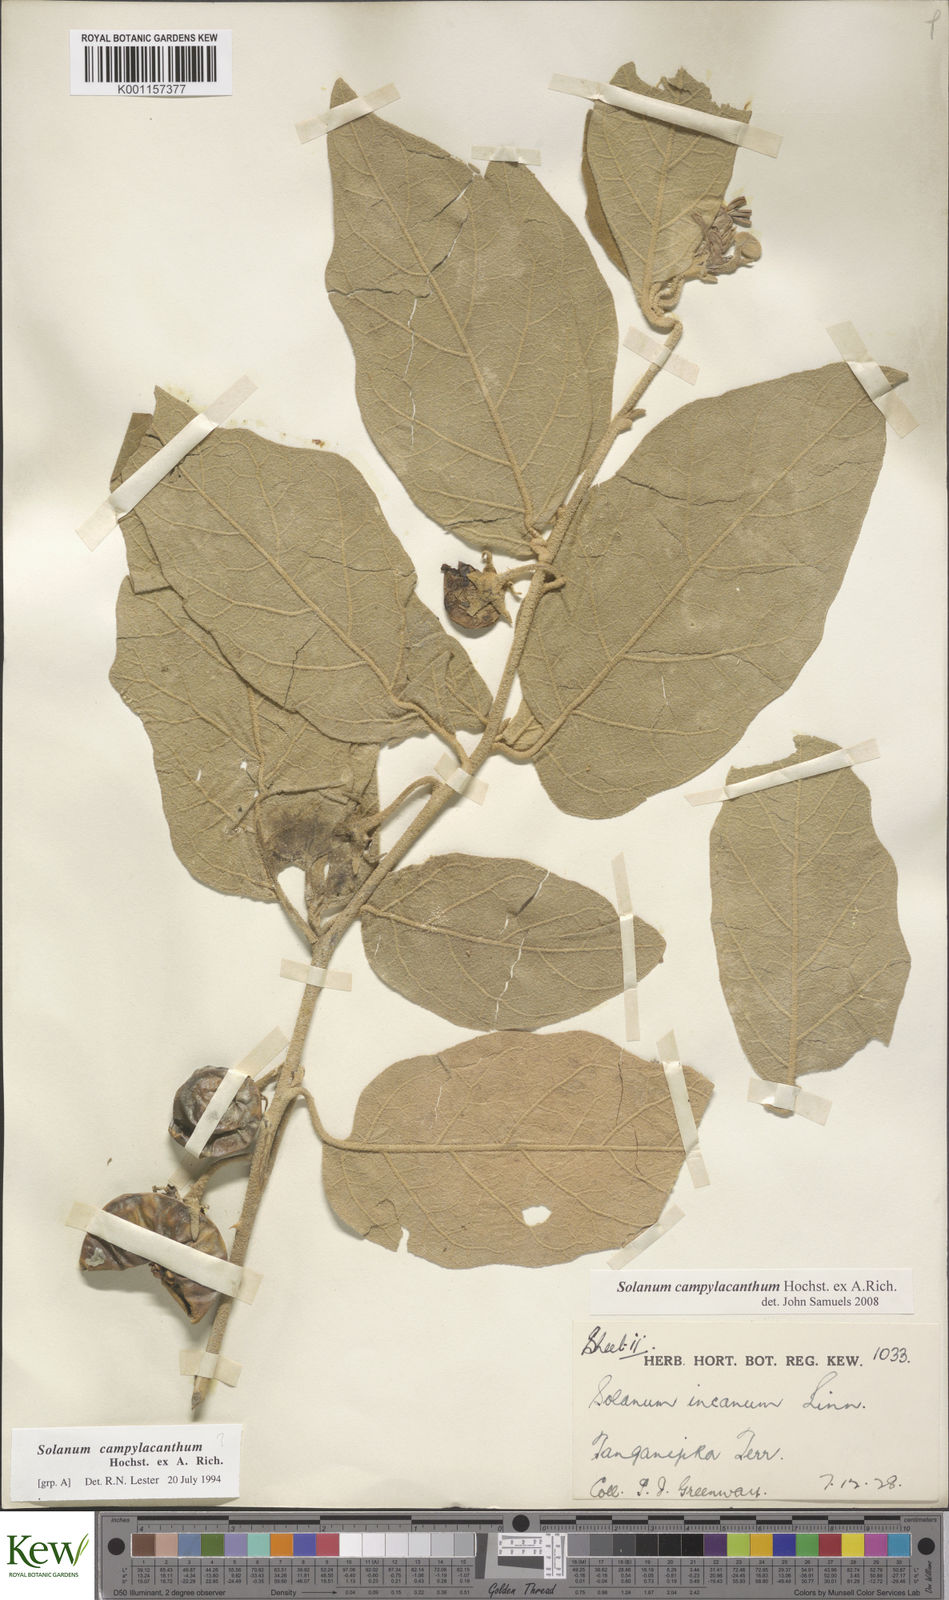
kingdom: Plantae
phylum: Tracheophyta
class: Magnoliopsida
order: Solanales
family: Solanaceae
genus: Solanum
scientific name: Solanum campylacanthum
